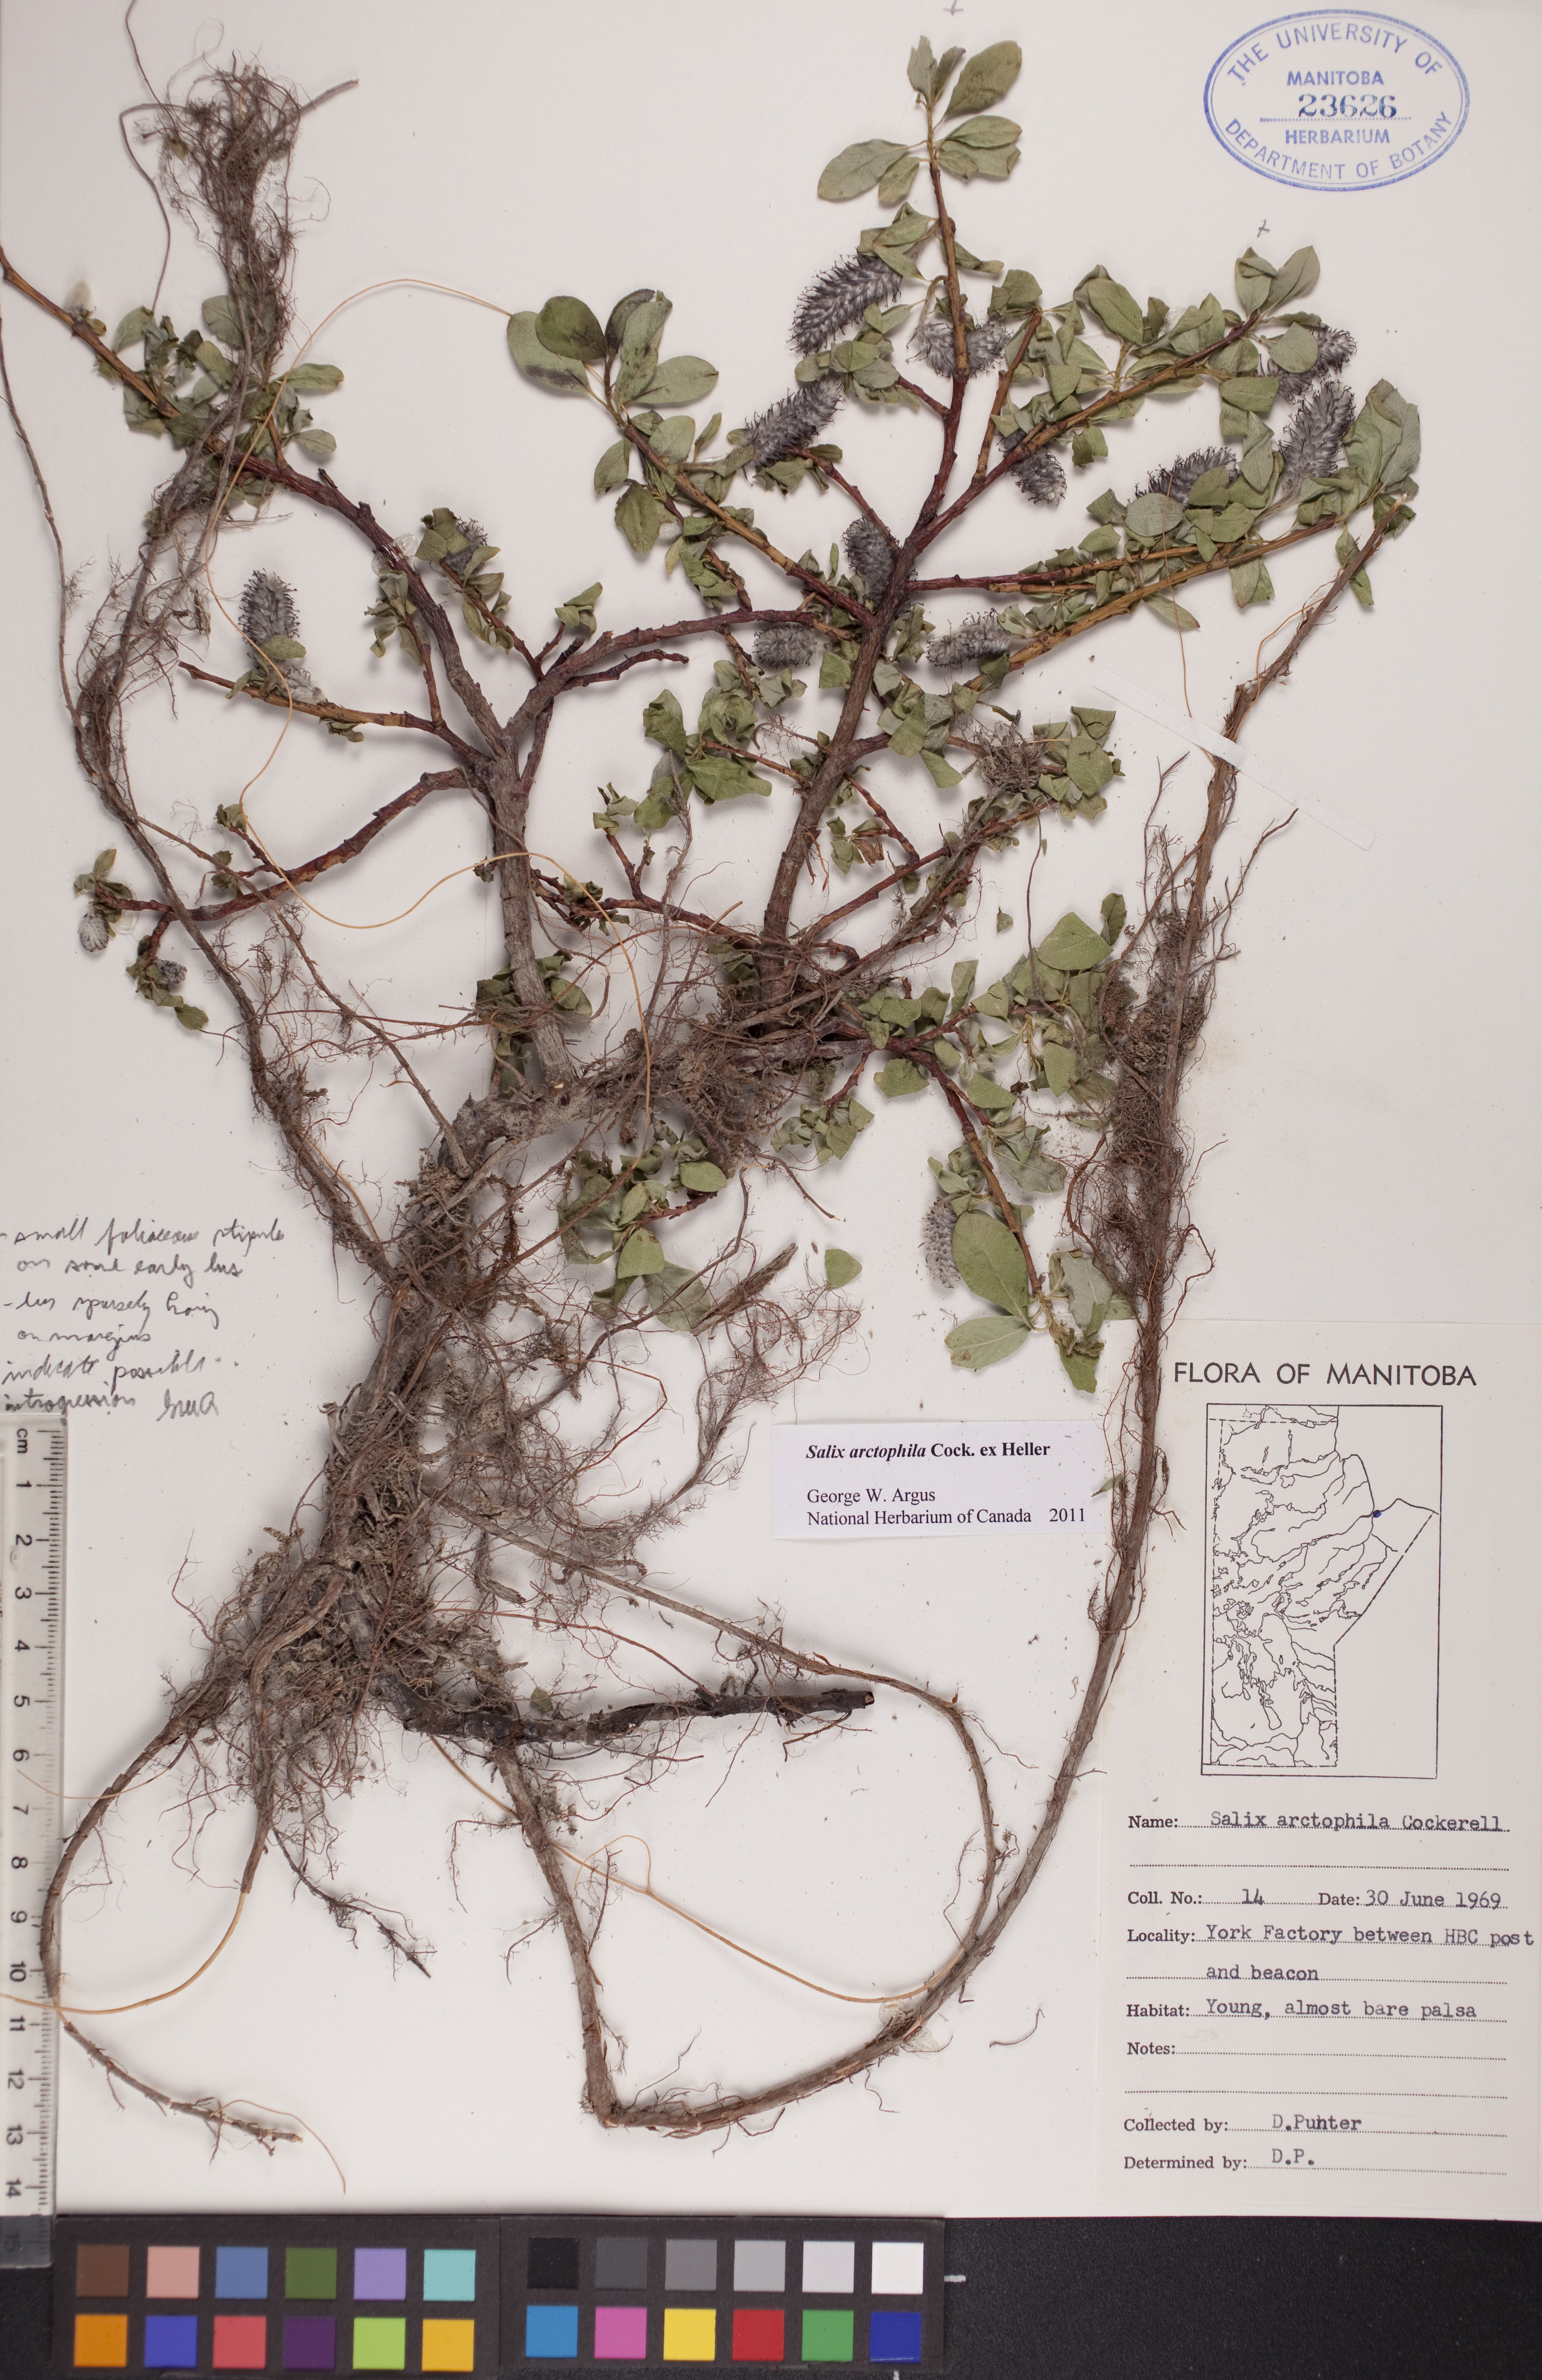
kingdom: Plantae
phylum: Tracheophyta
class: Magnoliopsida
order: Malpighiales
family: Salicaceae
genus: Salix
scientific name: Salix arctophila
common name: Greenland willow
